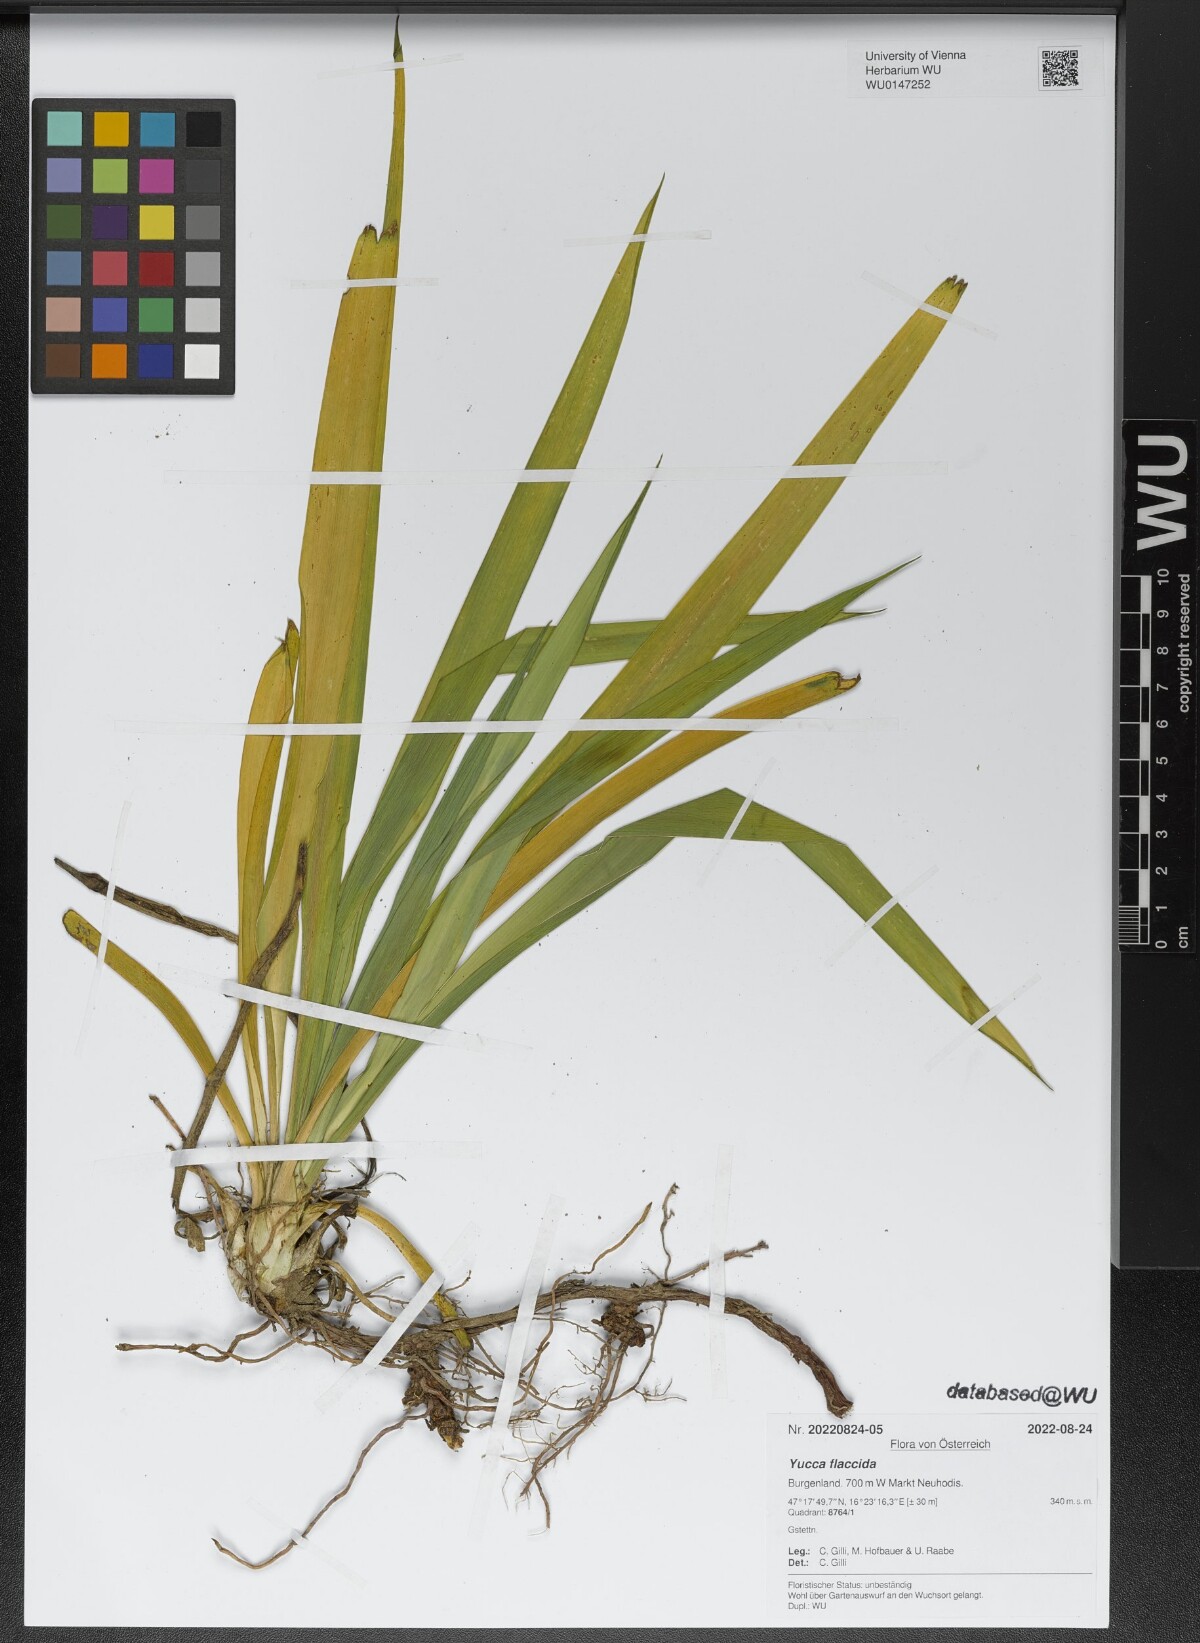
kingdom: Plantae
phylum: Tracheophyta
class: Liliopsida
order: Asparagales
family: Asparagaceae
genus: Yucca
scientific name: Yucca flaccida
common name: Adam's-needle
